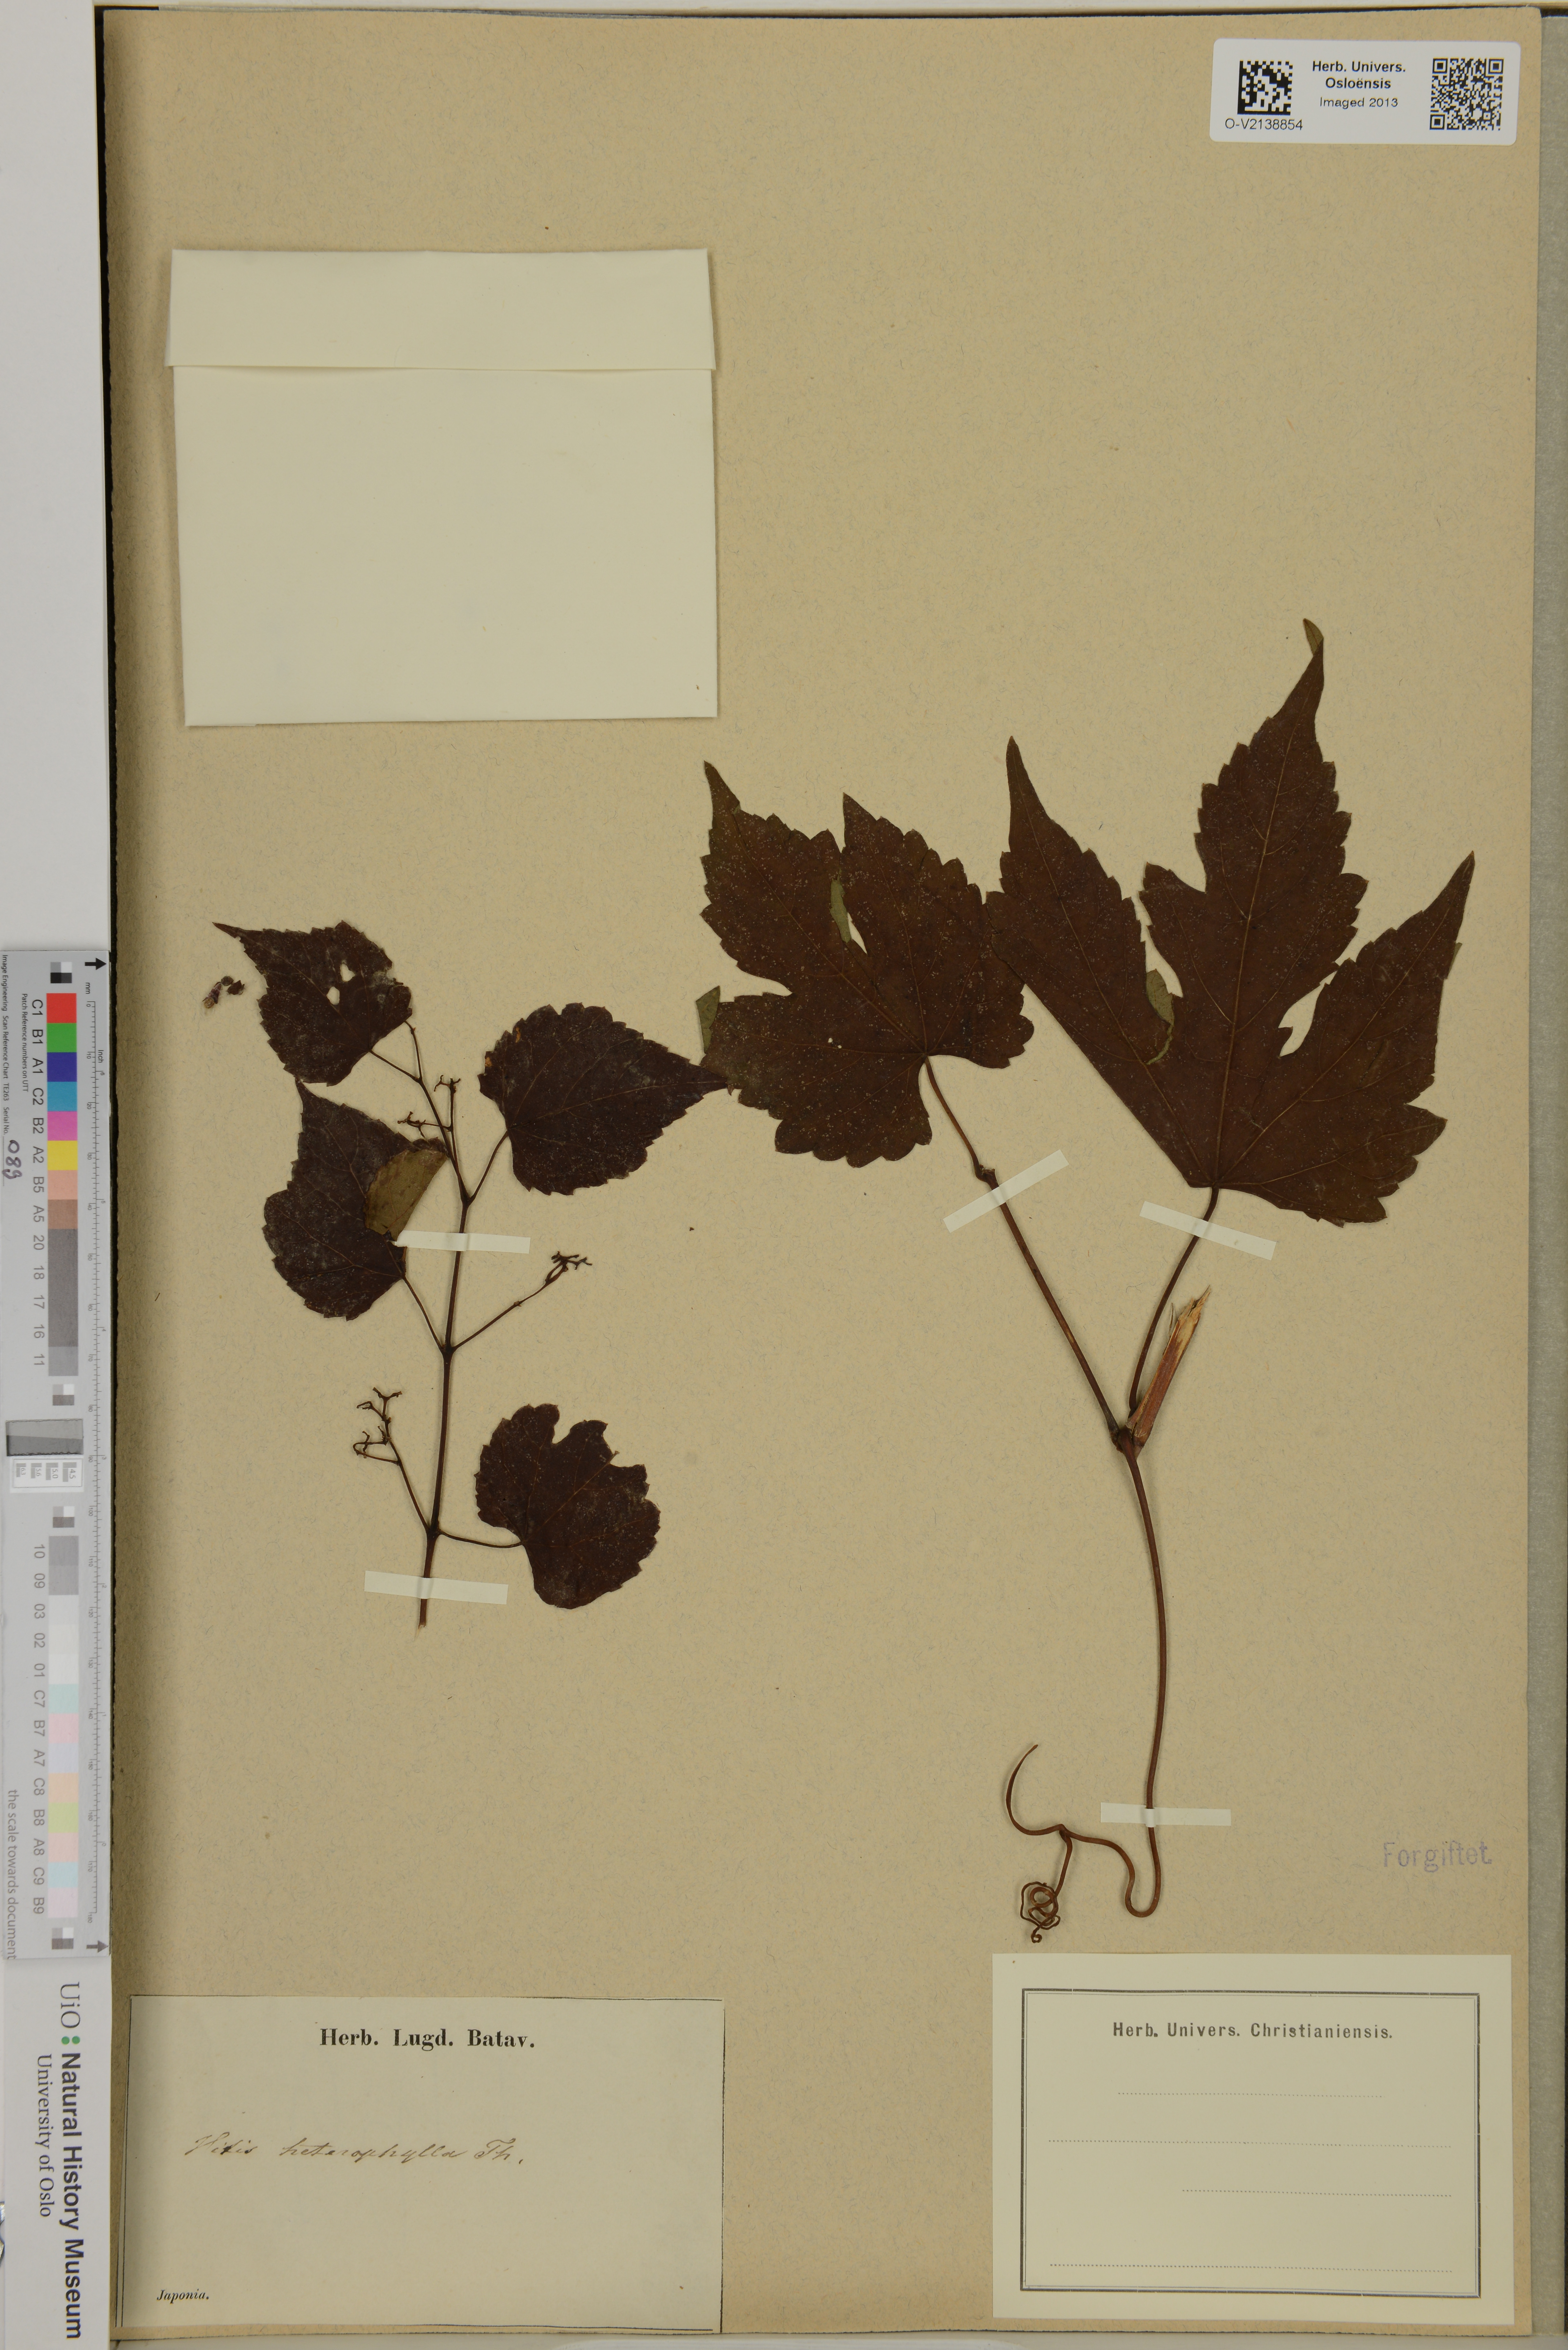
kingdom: Plantae
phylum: Tracheophyta
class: Magnoliopsida
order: Vitales
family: Vitaceae
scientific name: Vitaceae
